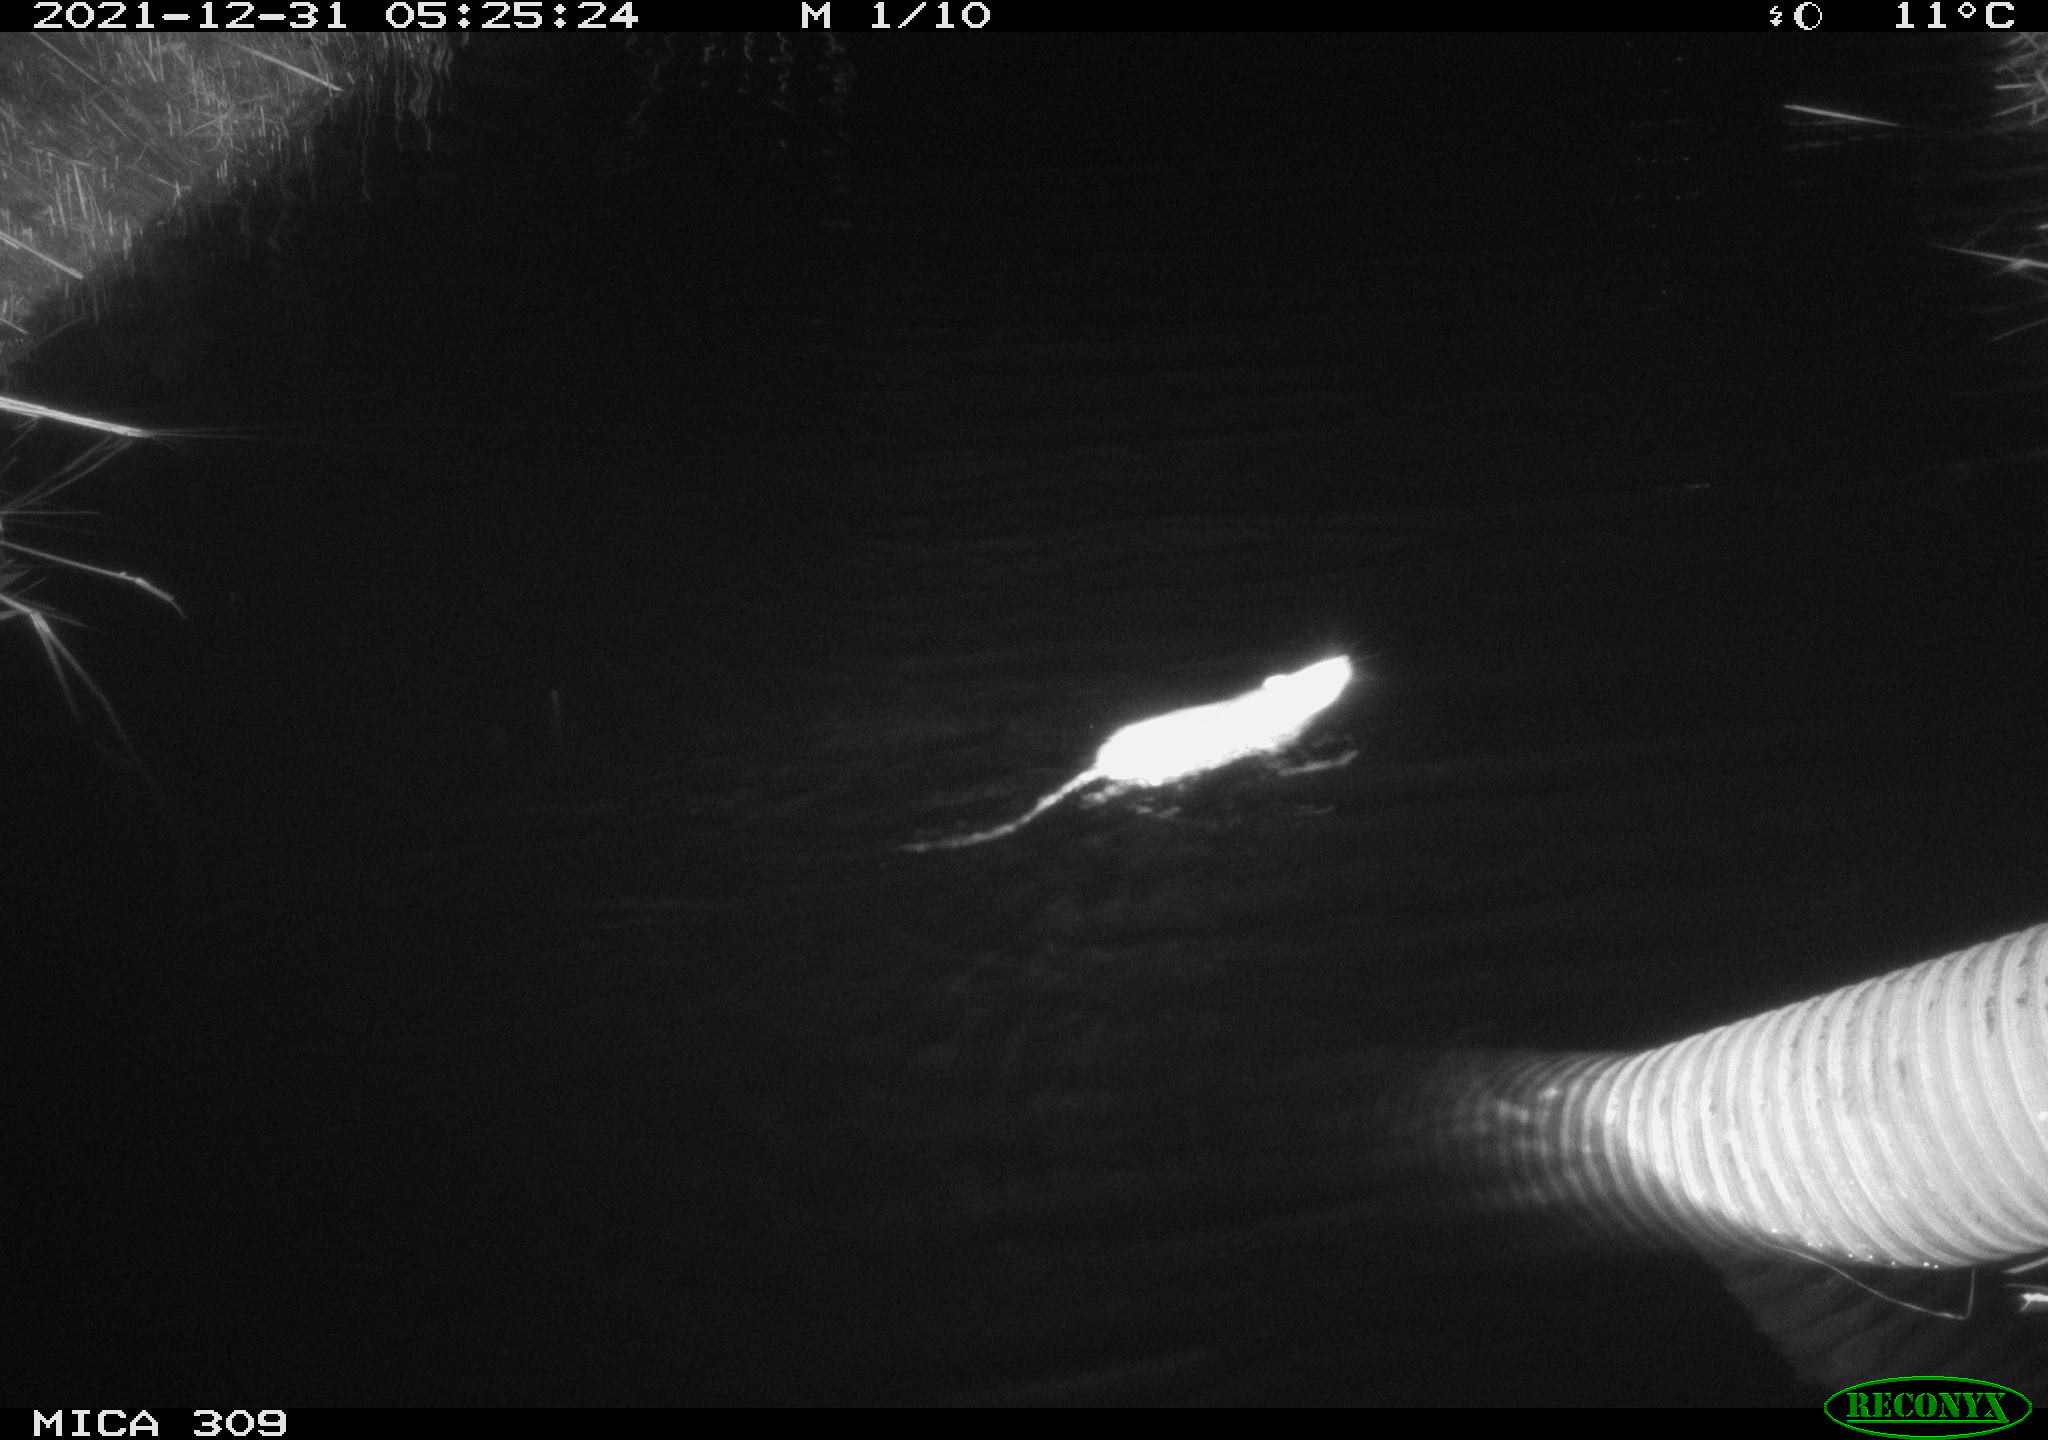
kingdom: Animalia
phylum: Chordata
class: Mammalia
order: Rodentia
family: Muridae
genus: Rattus
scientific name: Rattus norvegicus
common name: Brown rat
